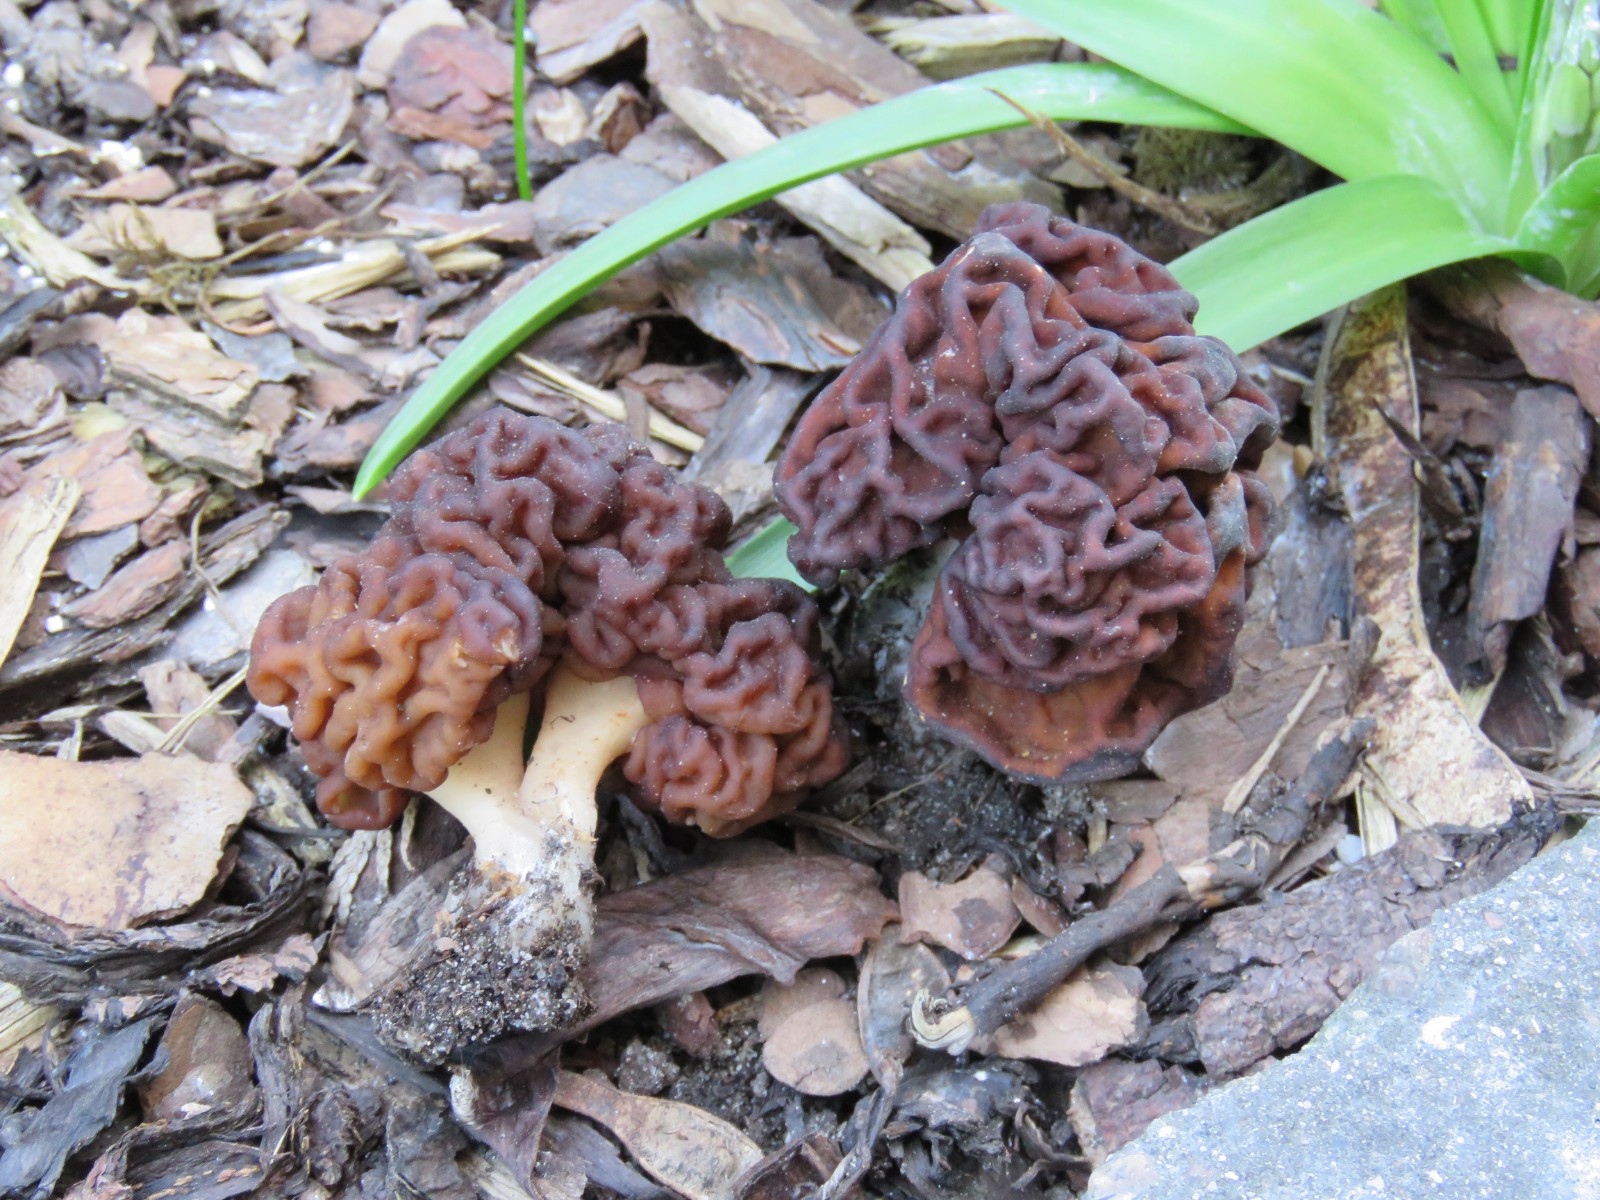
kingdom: Fungi
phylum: Ascomycota
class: Pezizomycetes
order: Pezizales
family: Discinaceae
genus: Gyromitra
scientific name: Gyromitra esculenta
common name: ægte stenmorkel
